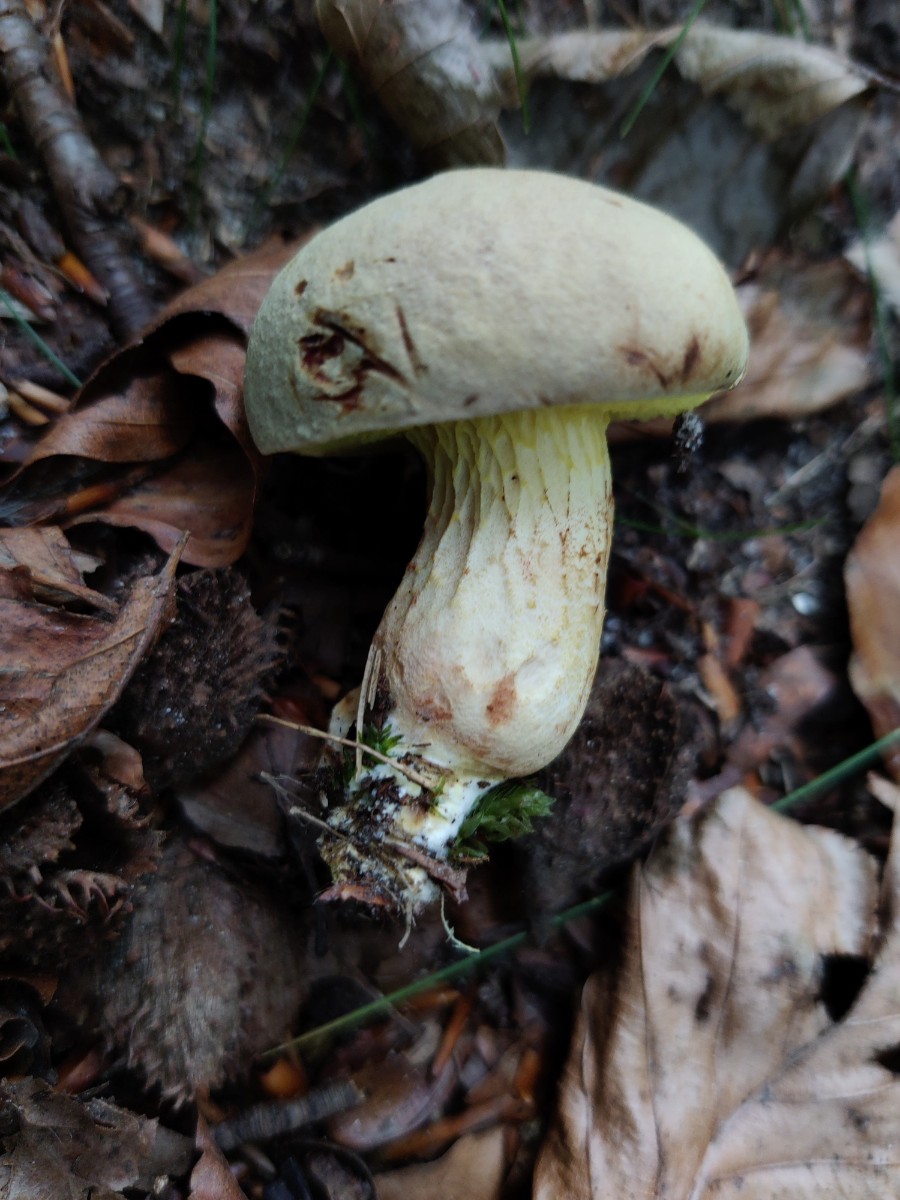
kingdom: Fungi
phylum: Basidiomycota
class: Agaricomycetes
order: Boletales
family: Boletaceae
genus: Xerocomus
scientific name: Xerocomus
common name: filtrørhat
